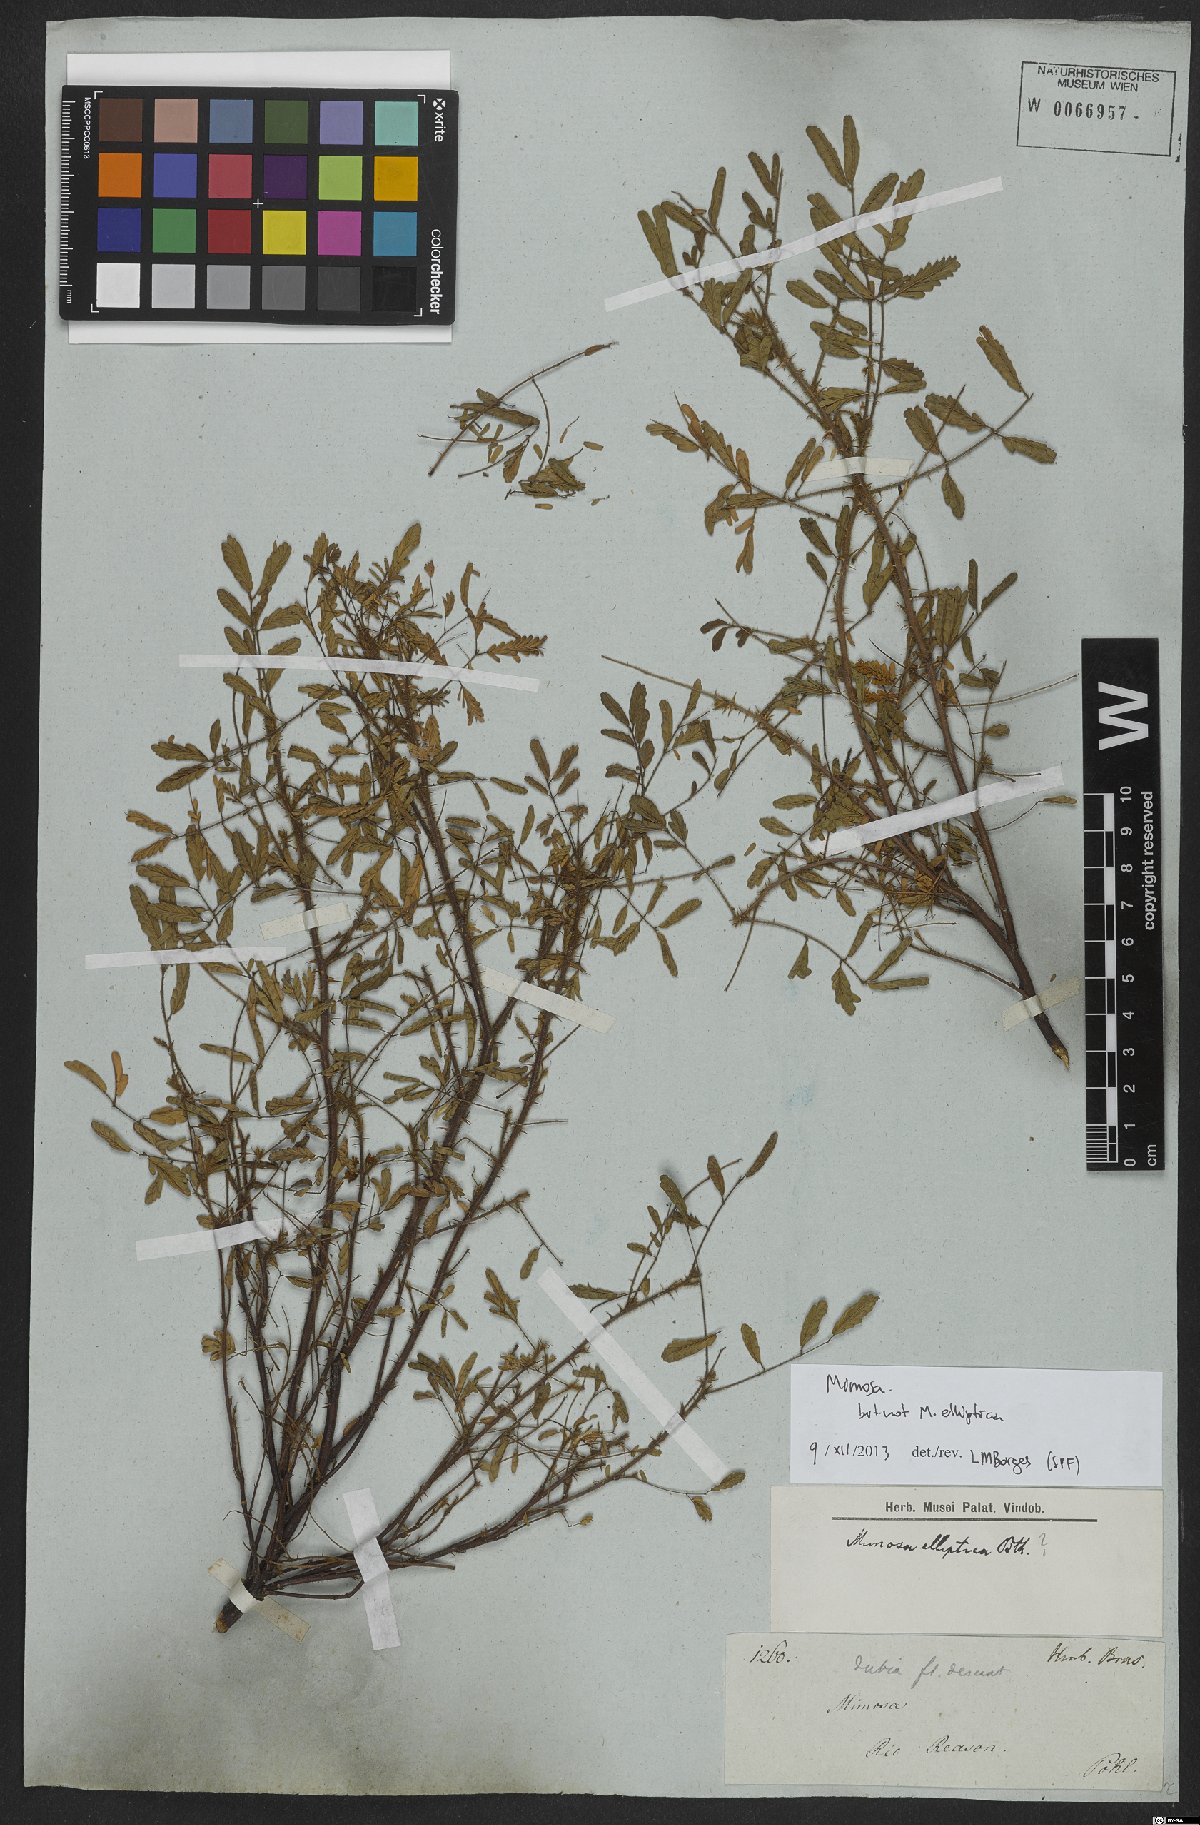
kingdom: Plantae
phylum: Tracheophyta
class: Magnoliopsida
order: Fabales
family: Fabaceae
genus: Mimosa
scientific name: Mimosa
